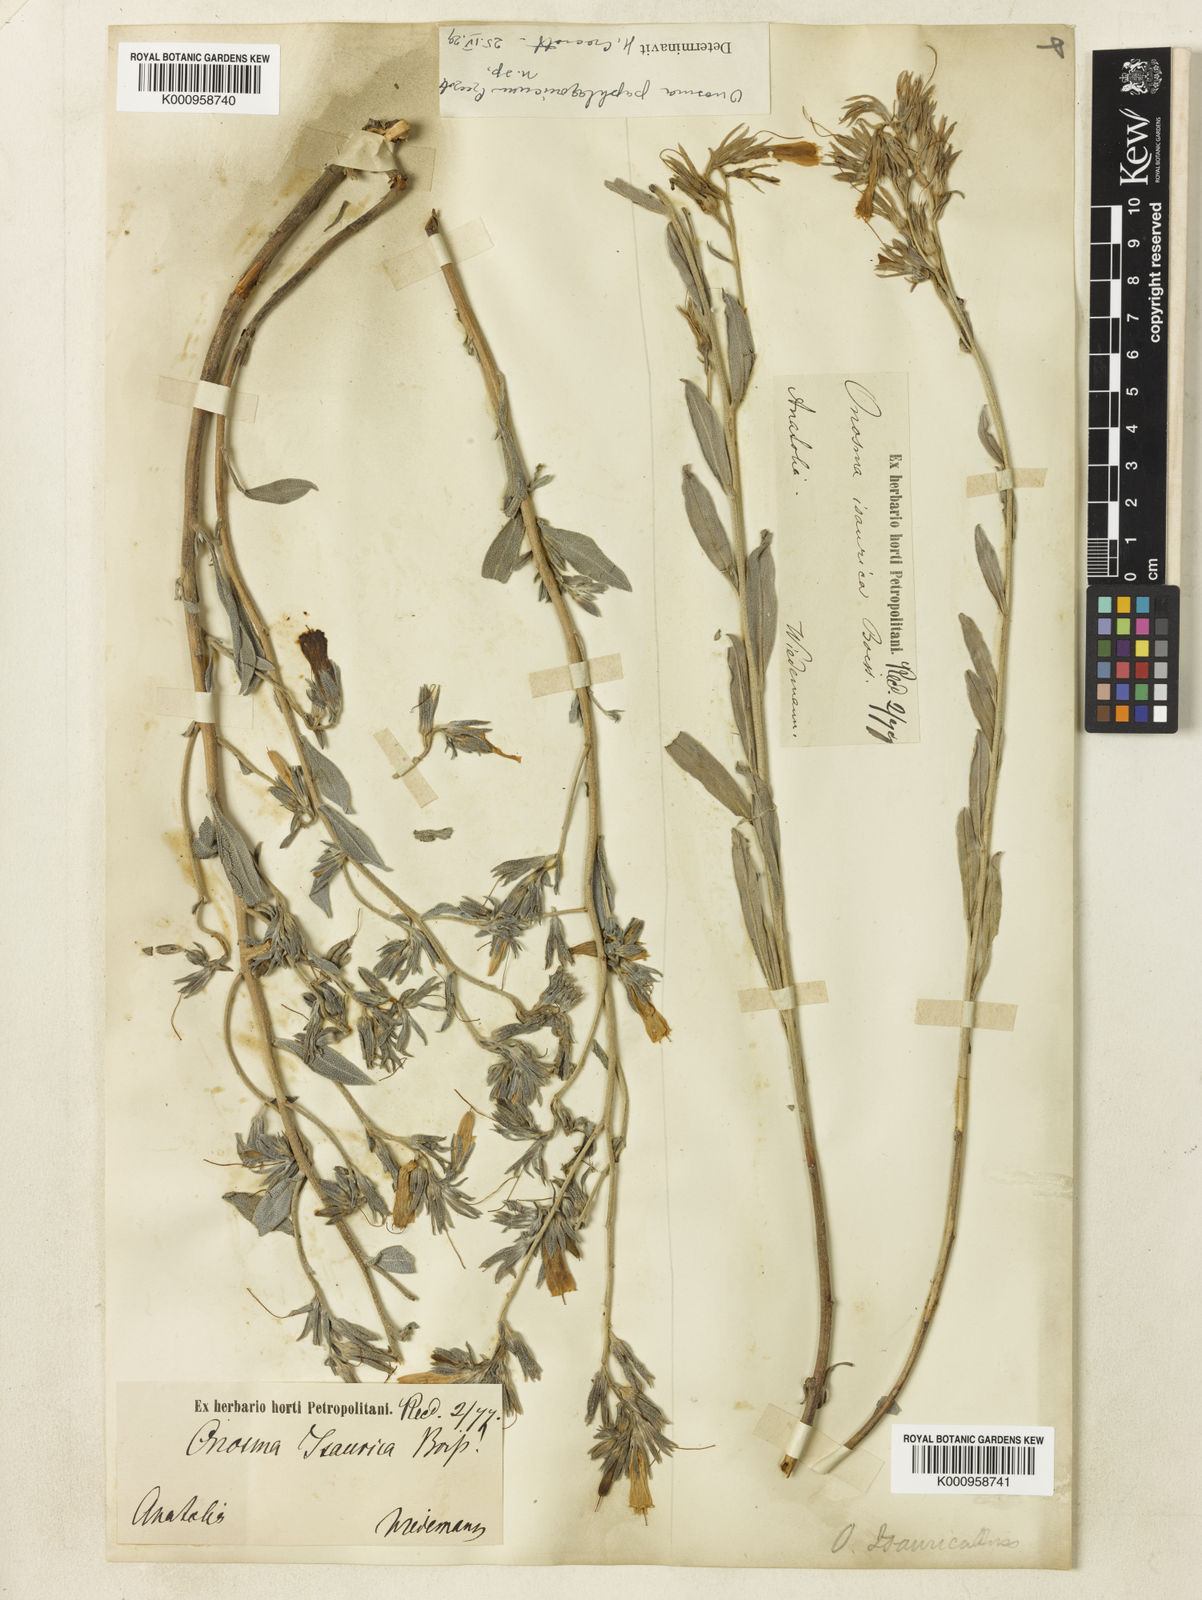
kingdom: Plantae
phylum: Tracheophyta
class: Magnoliopsida
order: Boraginales
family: Boraginaceae
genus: Onosma
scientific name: Onosma briquetii
